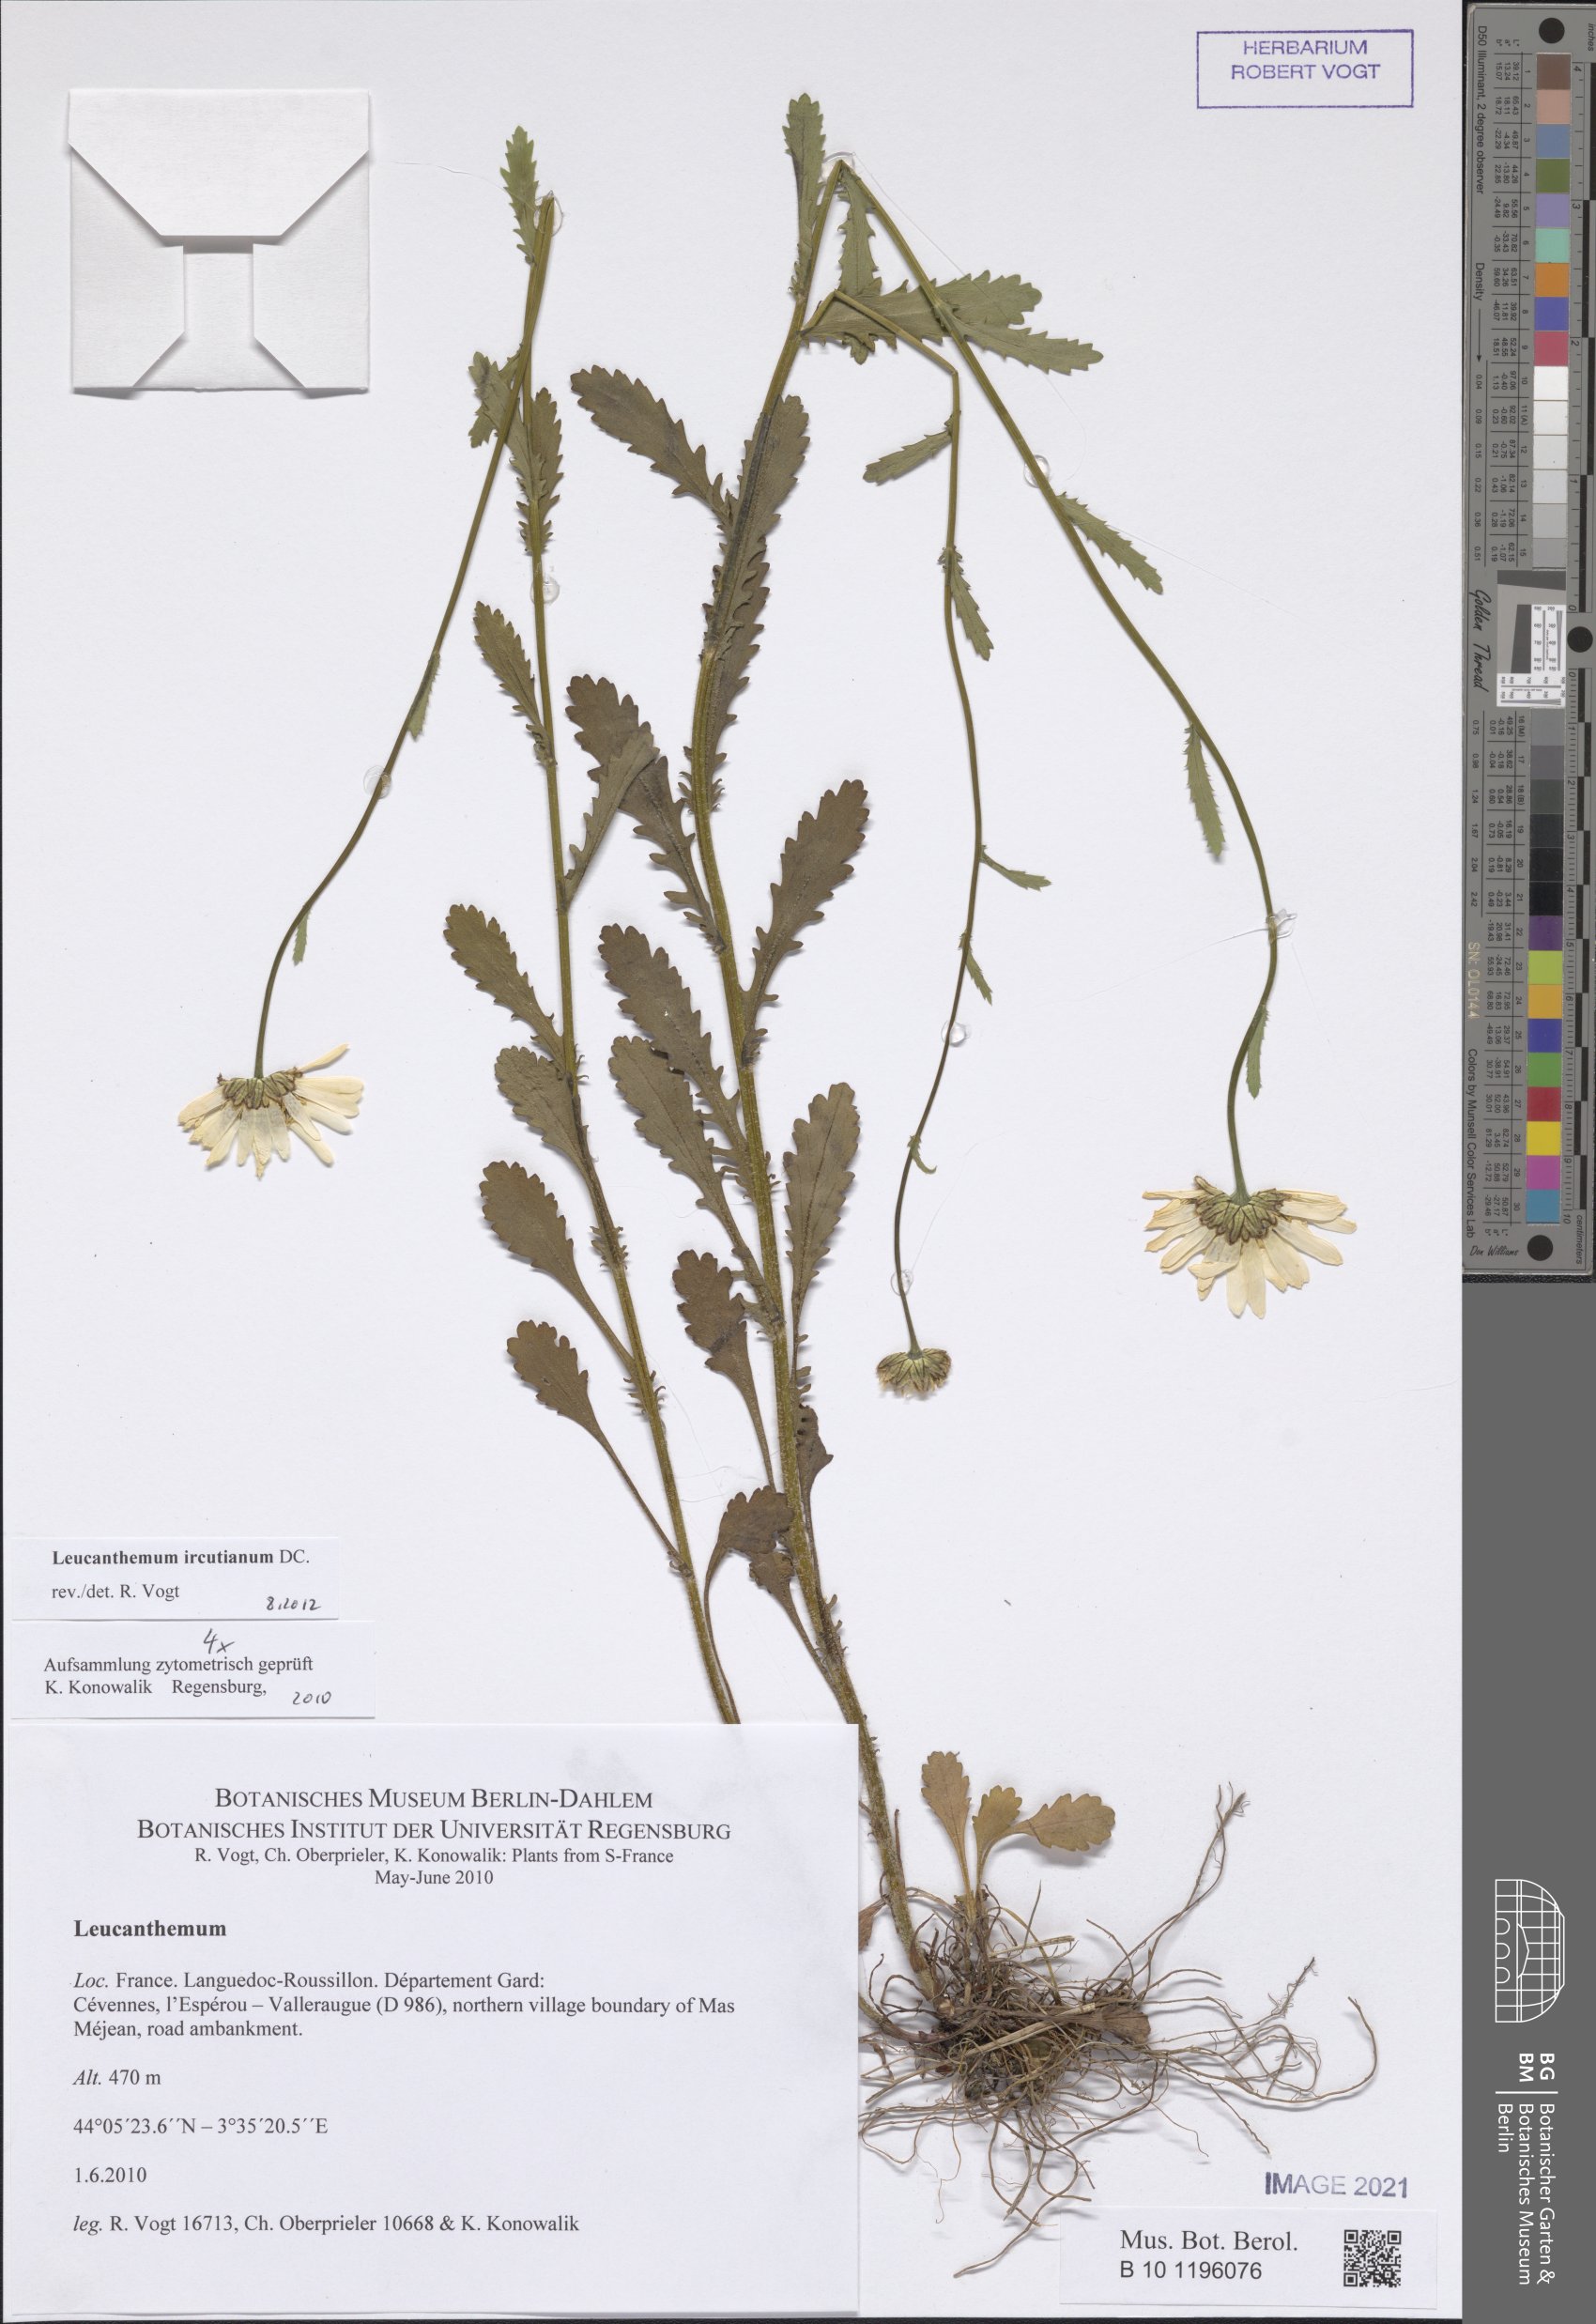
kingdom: Plantae
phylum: Tracheophyta
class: Magnoliopsida
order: Asterales
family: Asteraceae
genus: Leucanthemum
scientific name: Leucanthemum ircutianum
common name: Daisy
